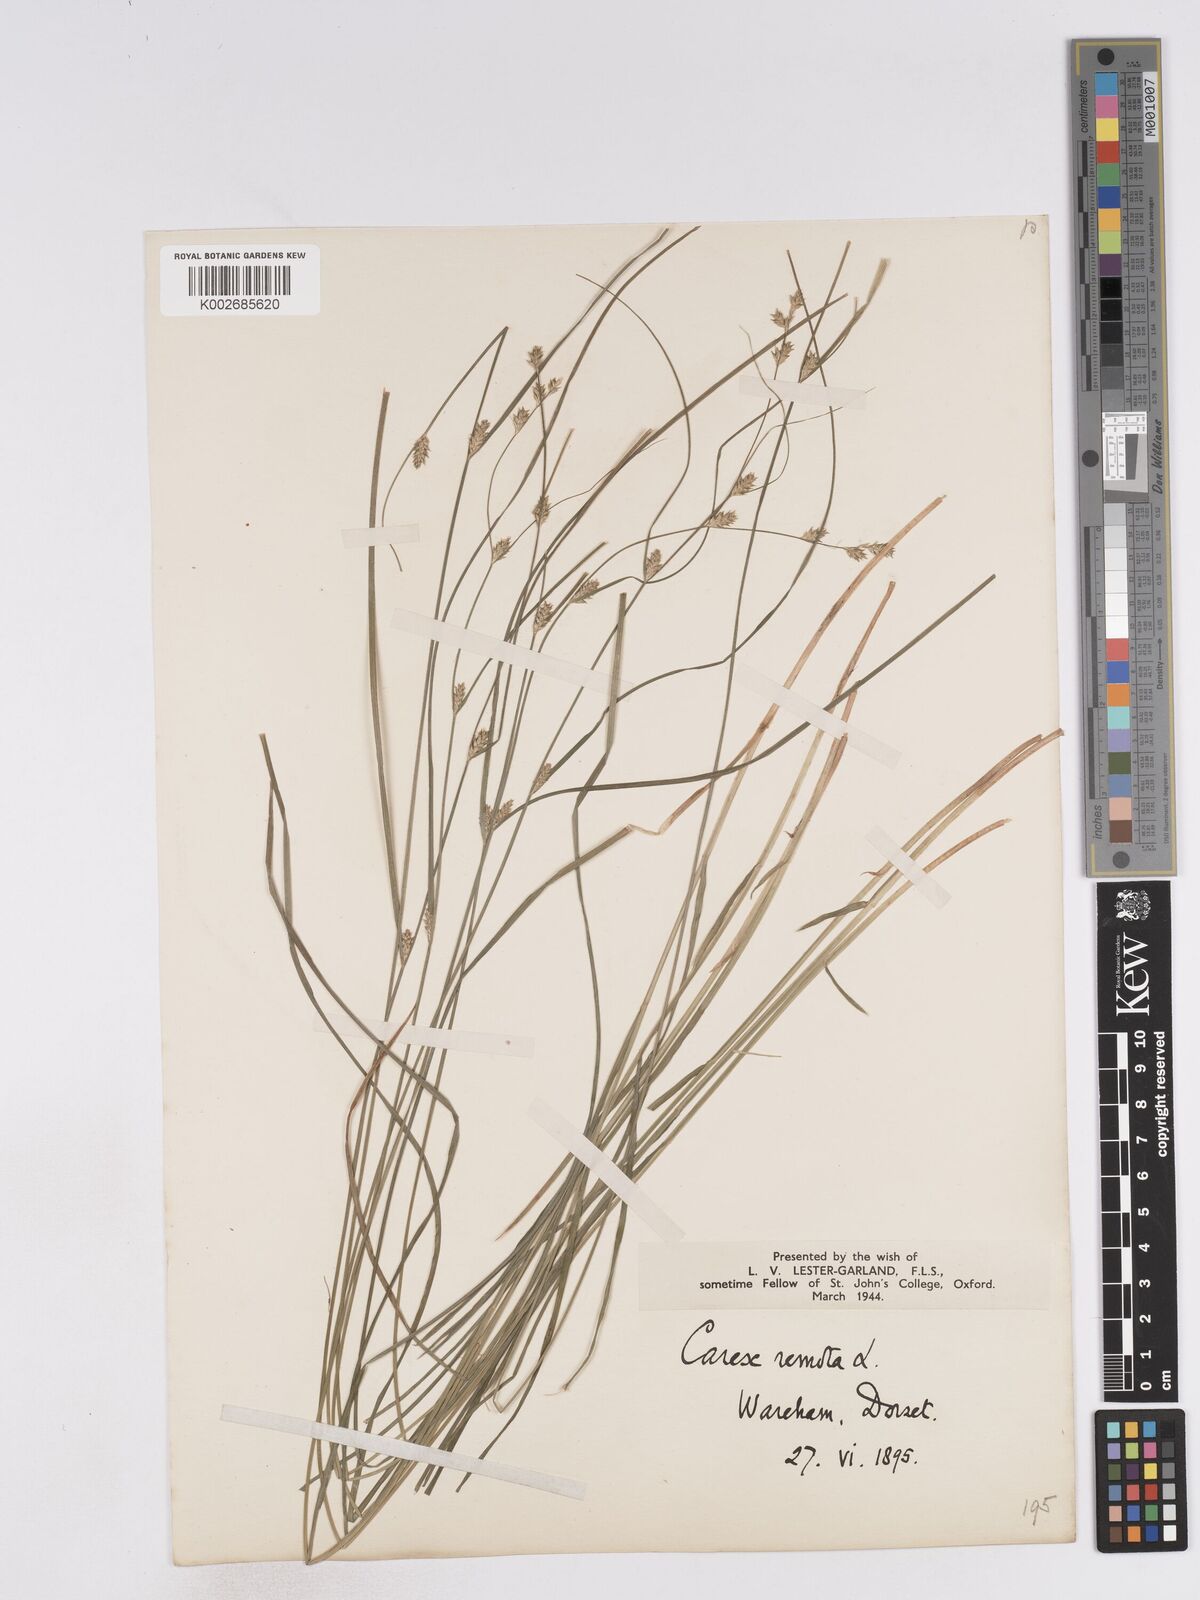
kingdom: Plantae
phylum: Tracheophyta
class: Liliopsida
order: Poales
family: Cyperaceae
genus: Carex
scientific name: Carex remota
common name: Remote sedge
